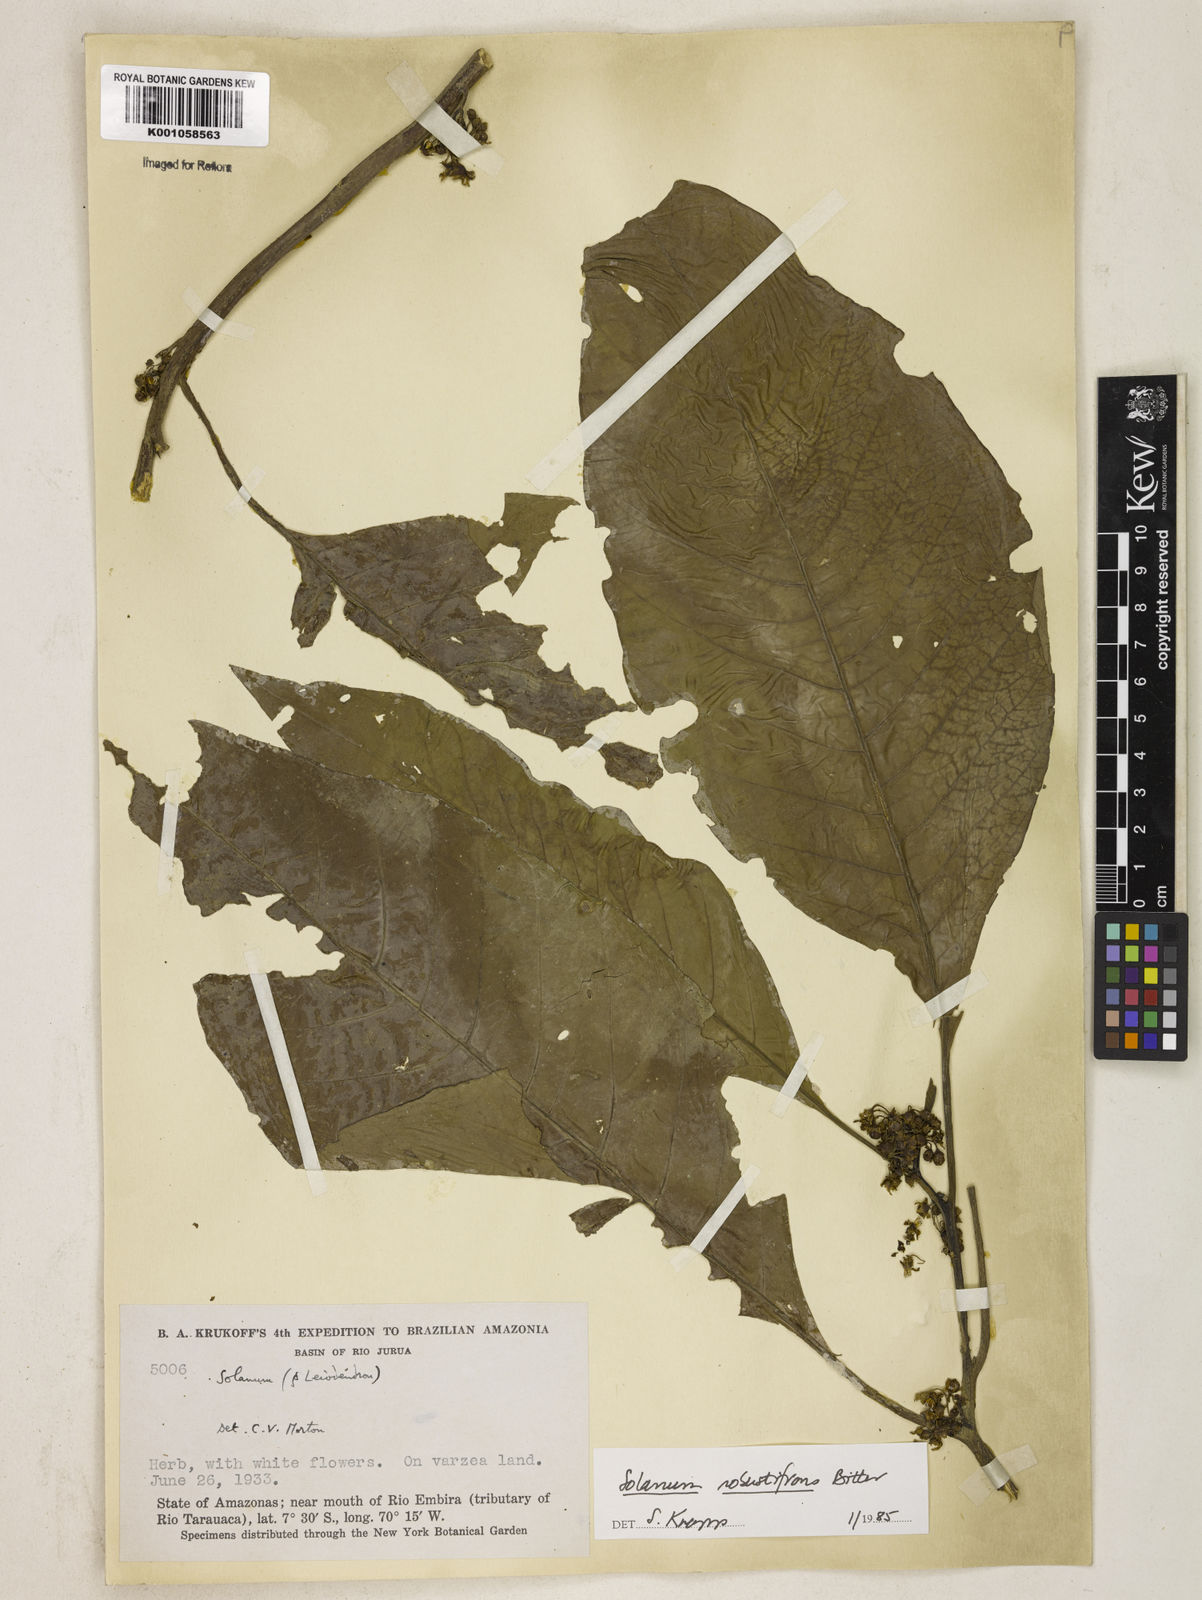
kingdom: Plantae
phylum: Tracheophyta
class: Magnoliopsida
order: Solanales
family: Solanaceae
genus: Solanum
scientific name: Solanum robustifrons
